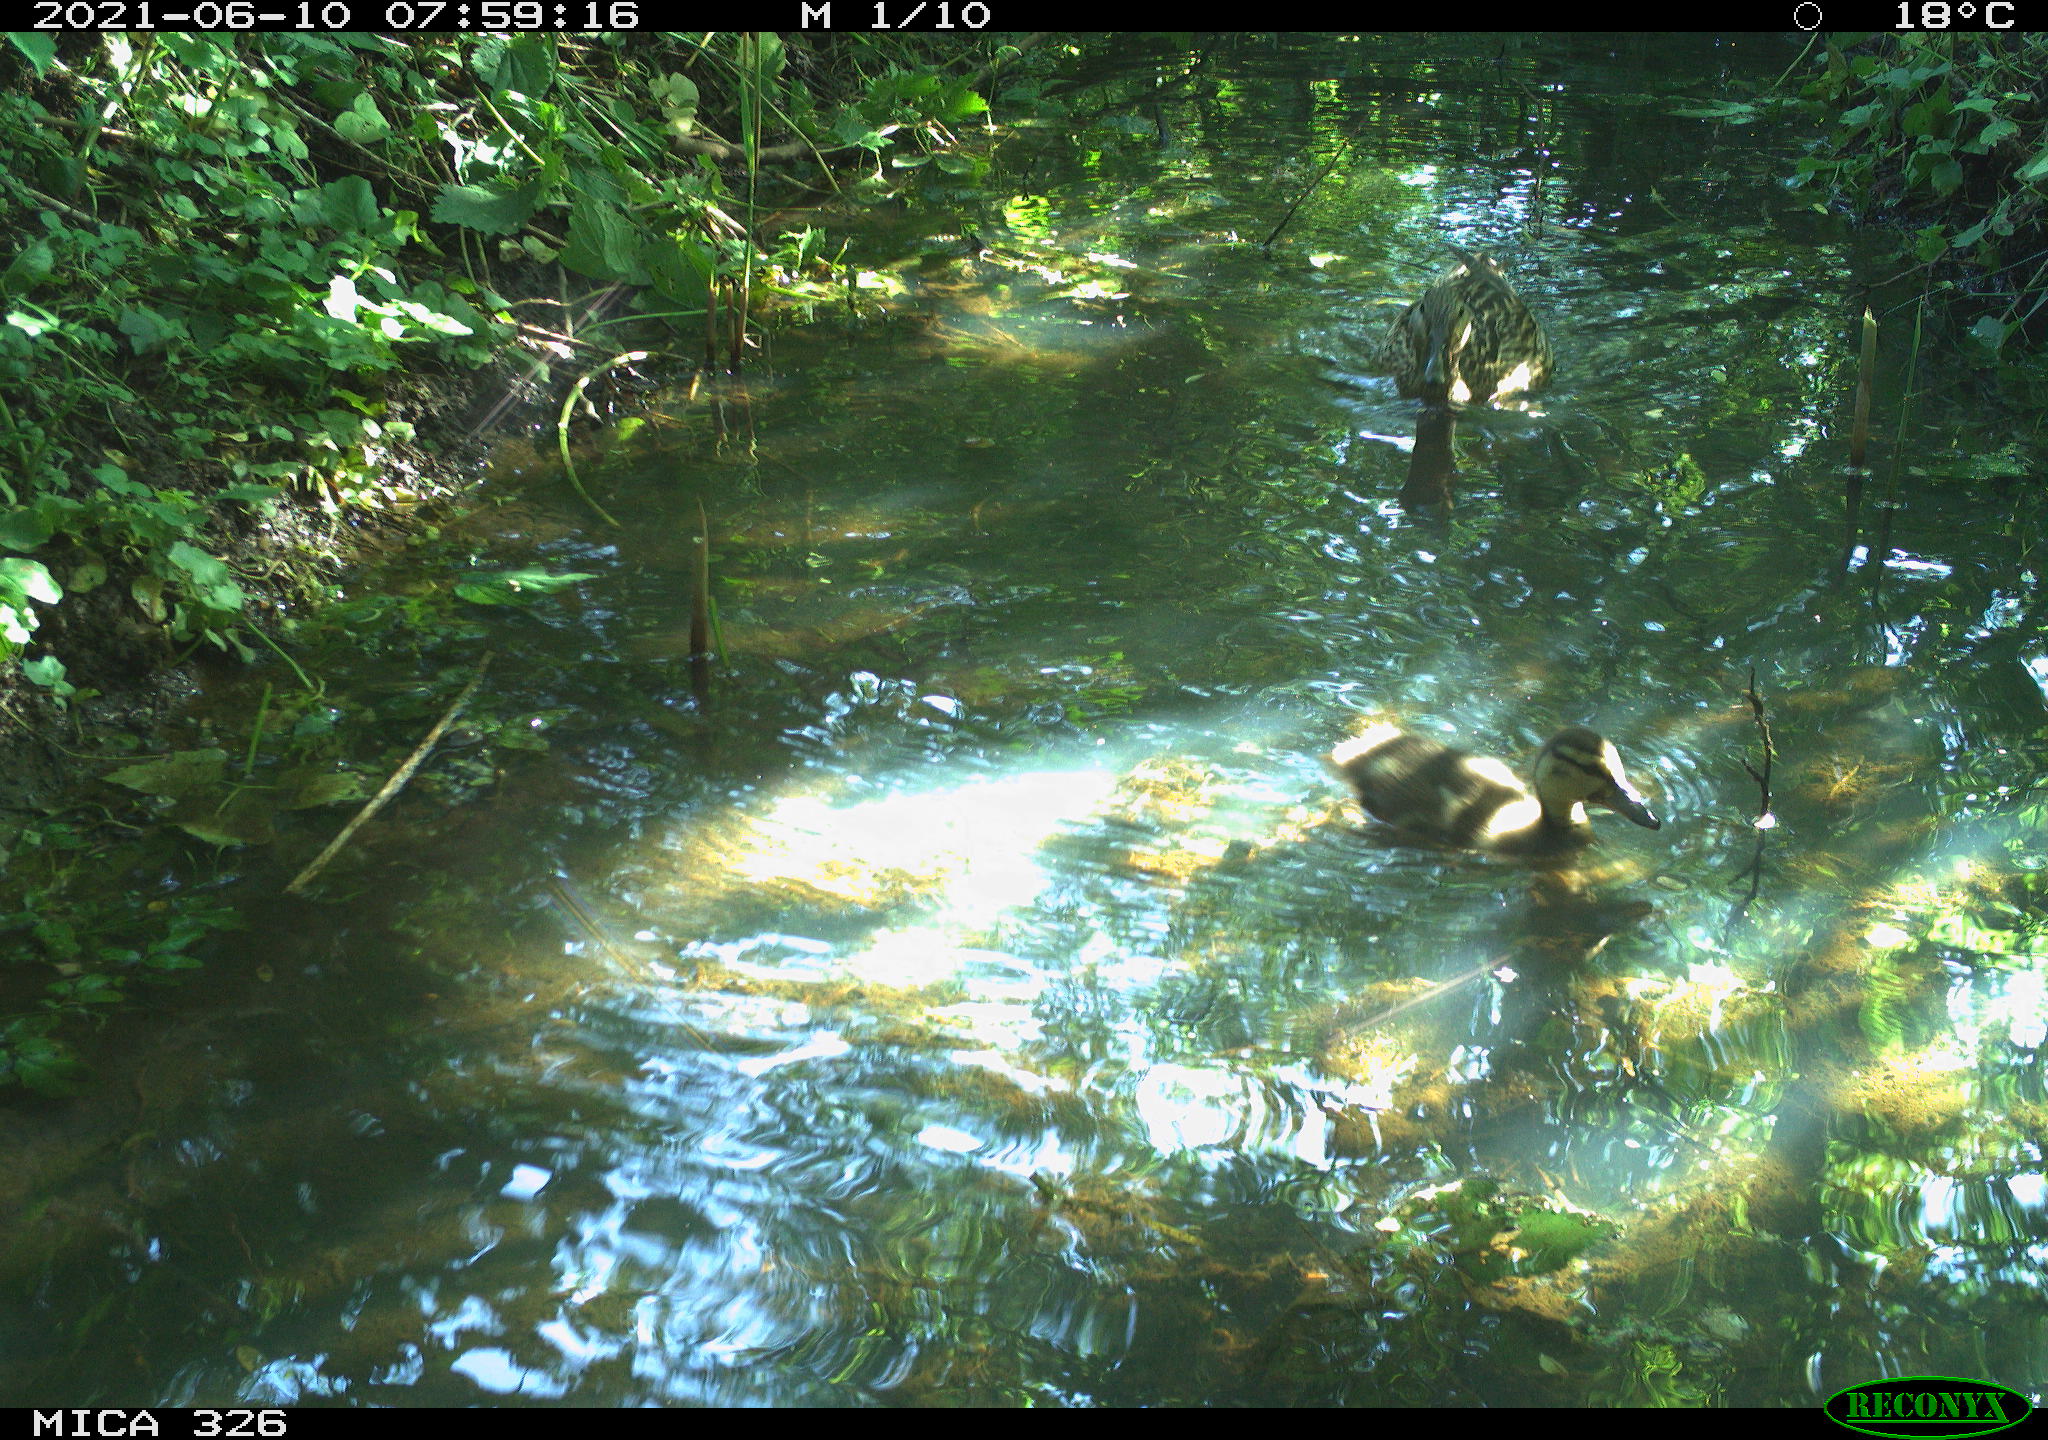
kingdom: Animalia
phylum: Chordata
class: Aves
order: Anseriformes
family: Anatidae
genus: Anas
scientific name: Anas platyrhynchos
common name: Mallard
